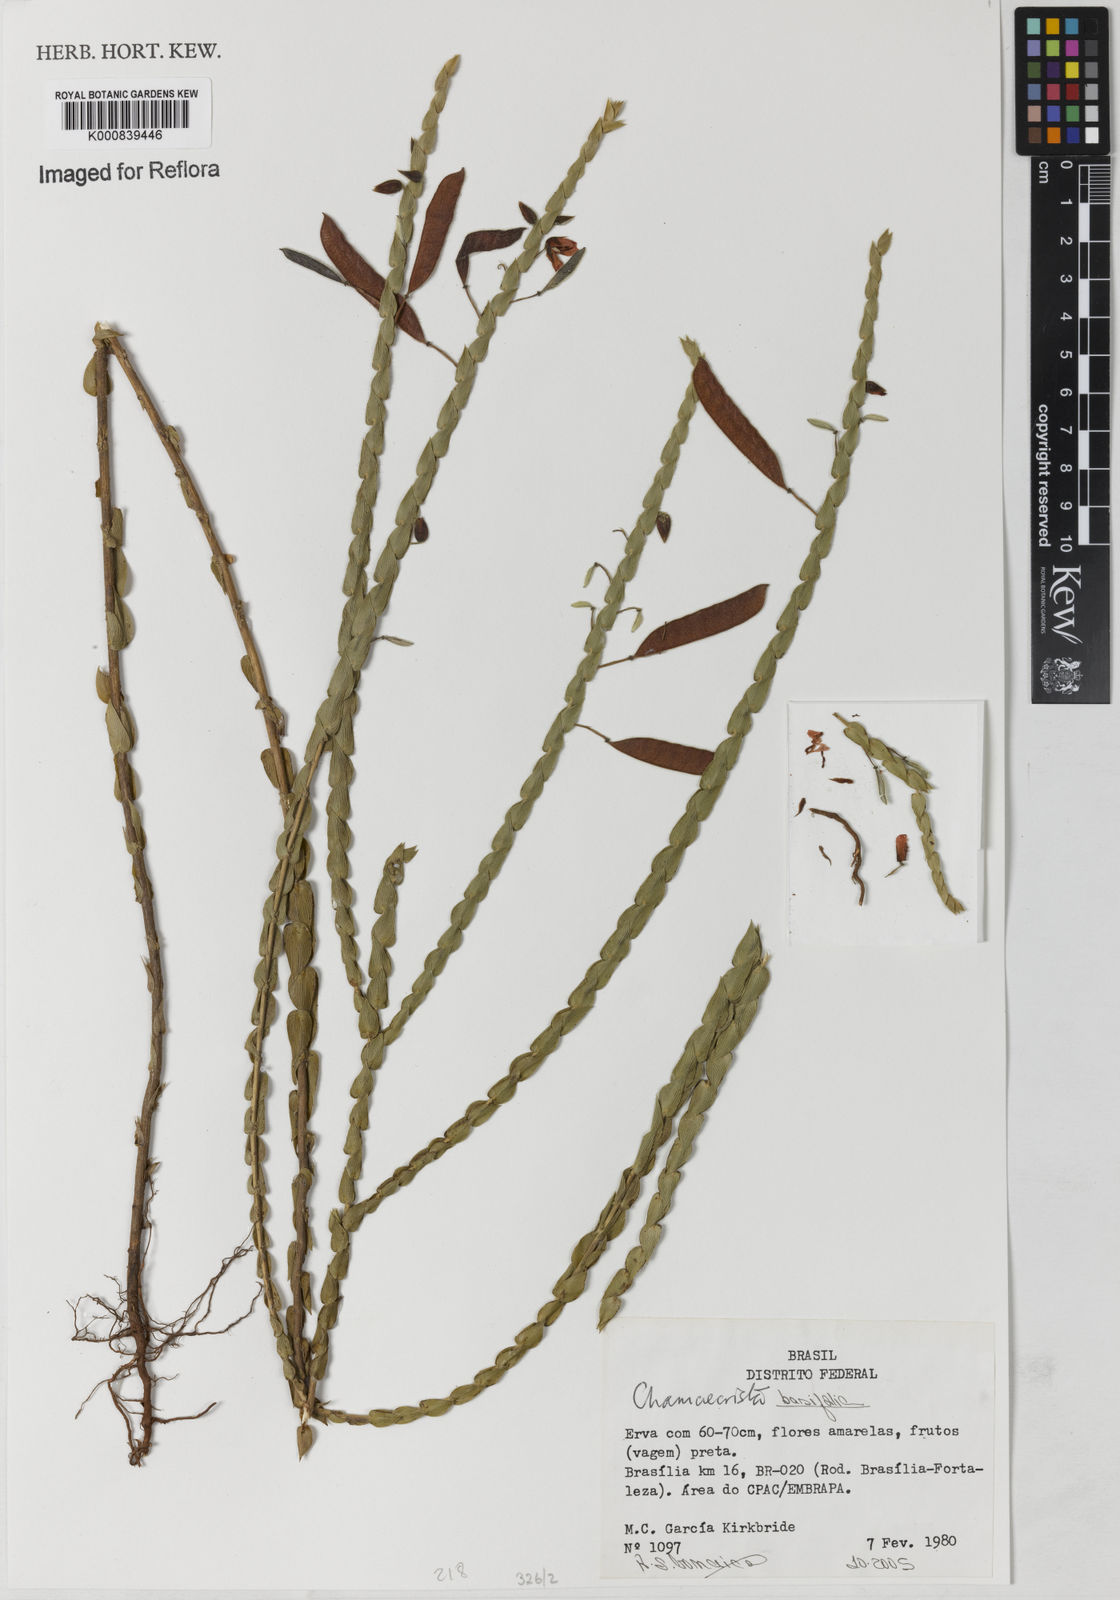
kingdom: Plantae
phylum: Tracheophyta
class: Magnoliopsida
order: Fabales
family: Fabaceae
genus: Chamaecrista
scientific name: Chamaecrista basifolia
